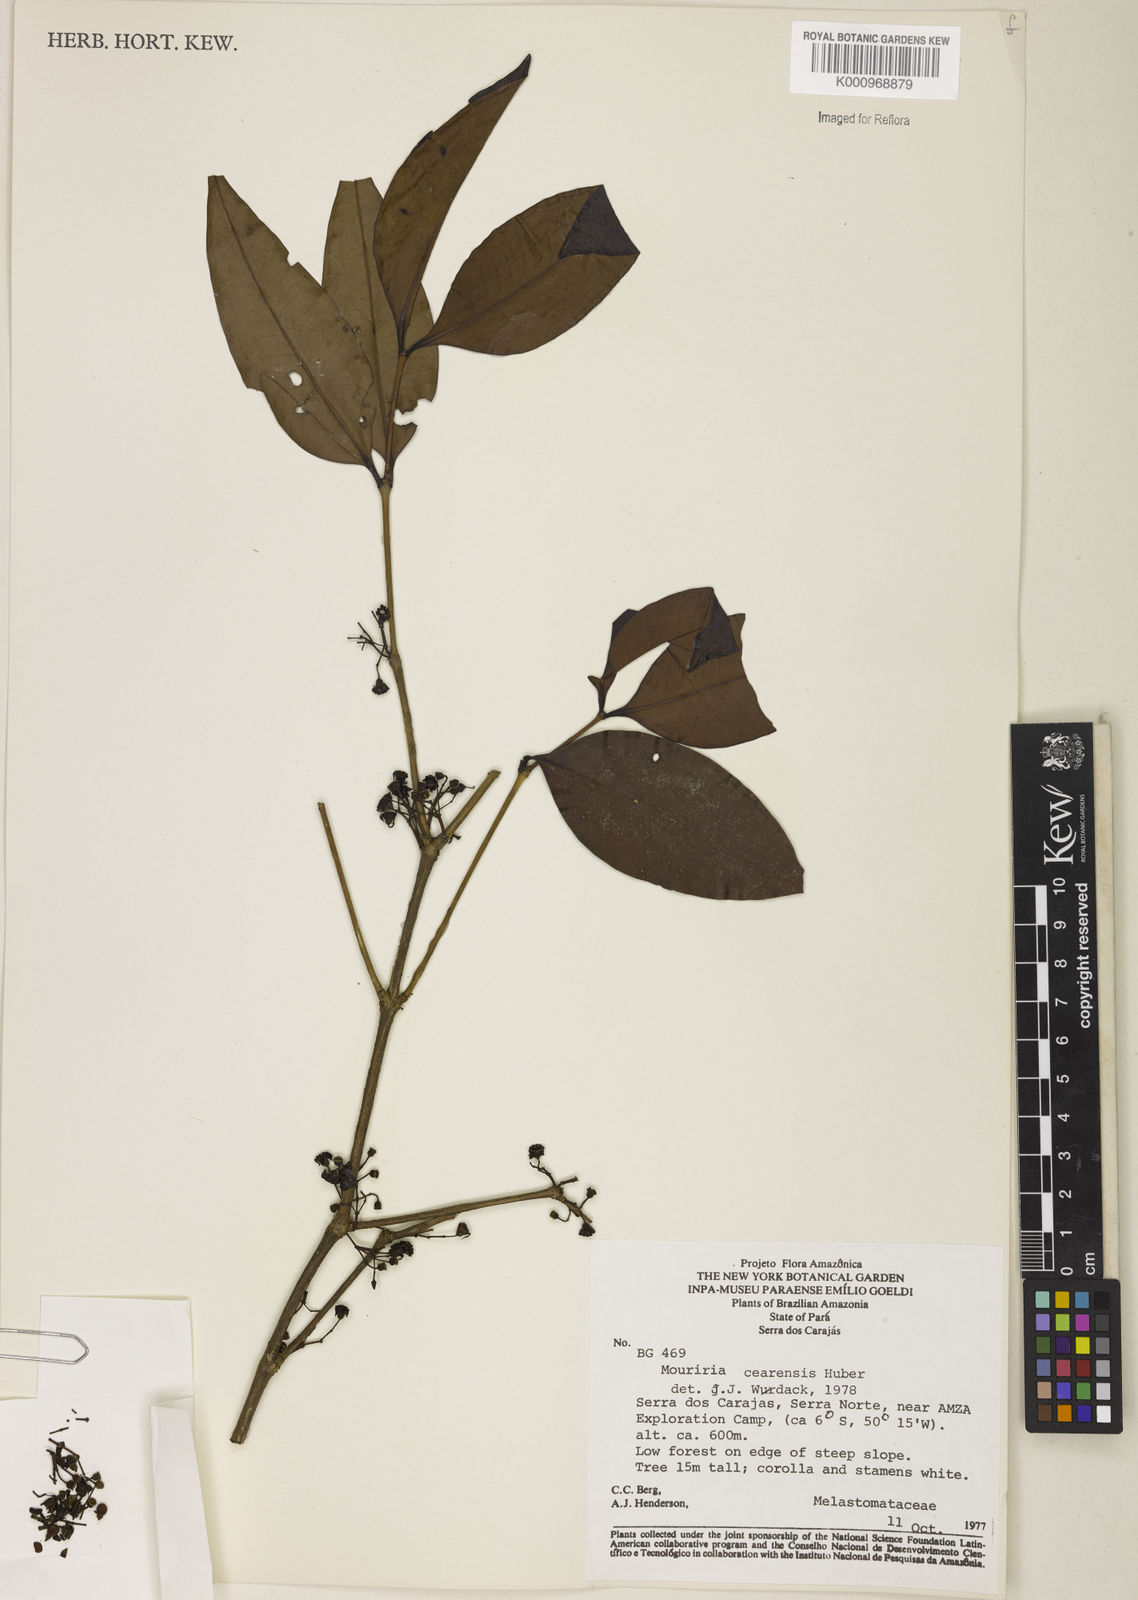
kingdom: Plantae
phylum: Tracheophyta
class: Magnoliopsida
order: Myrtales
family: Melastomataceae
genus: Mouriri
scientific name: Mouriri cearensis
